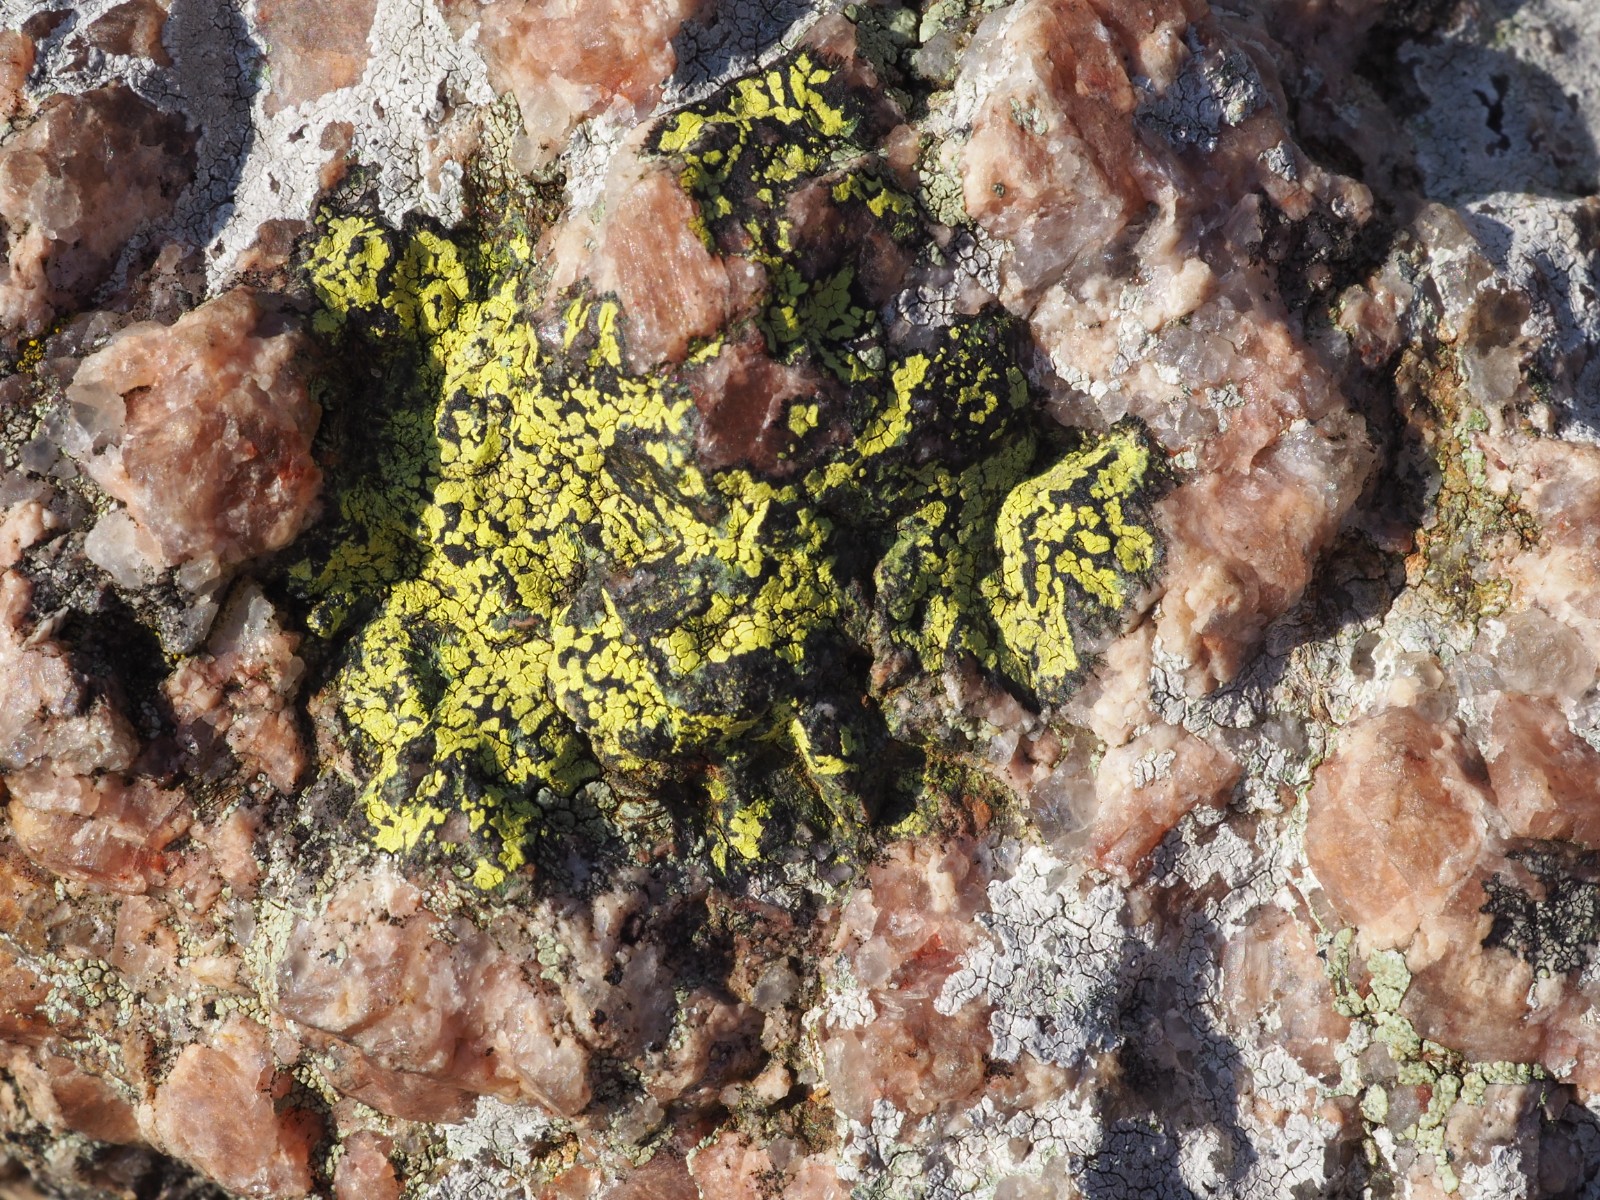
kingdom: Fungi
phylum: Ascomycota
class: Lecanoromycetes
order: Rhizocarpales
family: Rhizocarpaceae
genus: Rhizocarpon
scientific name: Rhizocarpon geographicum
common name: gulgrøn landkortlav
